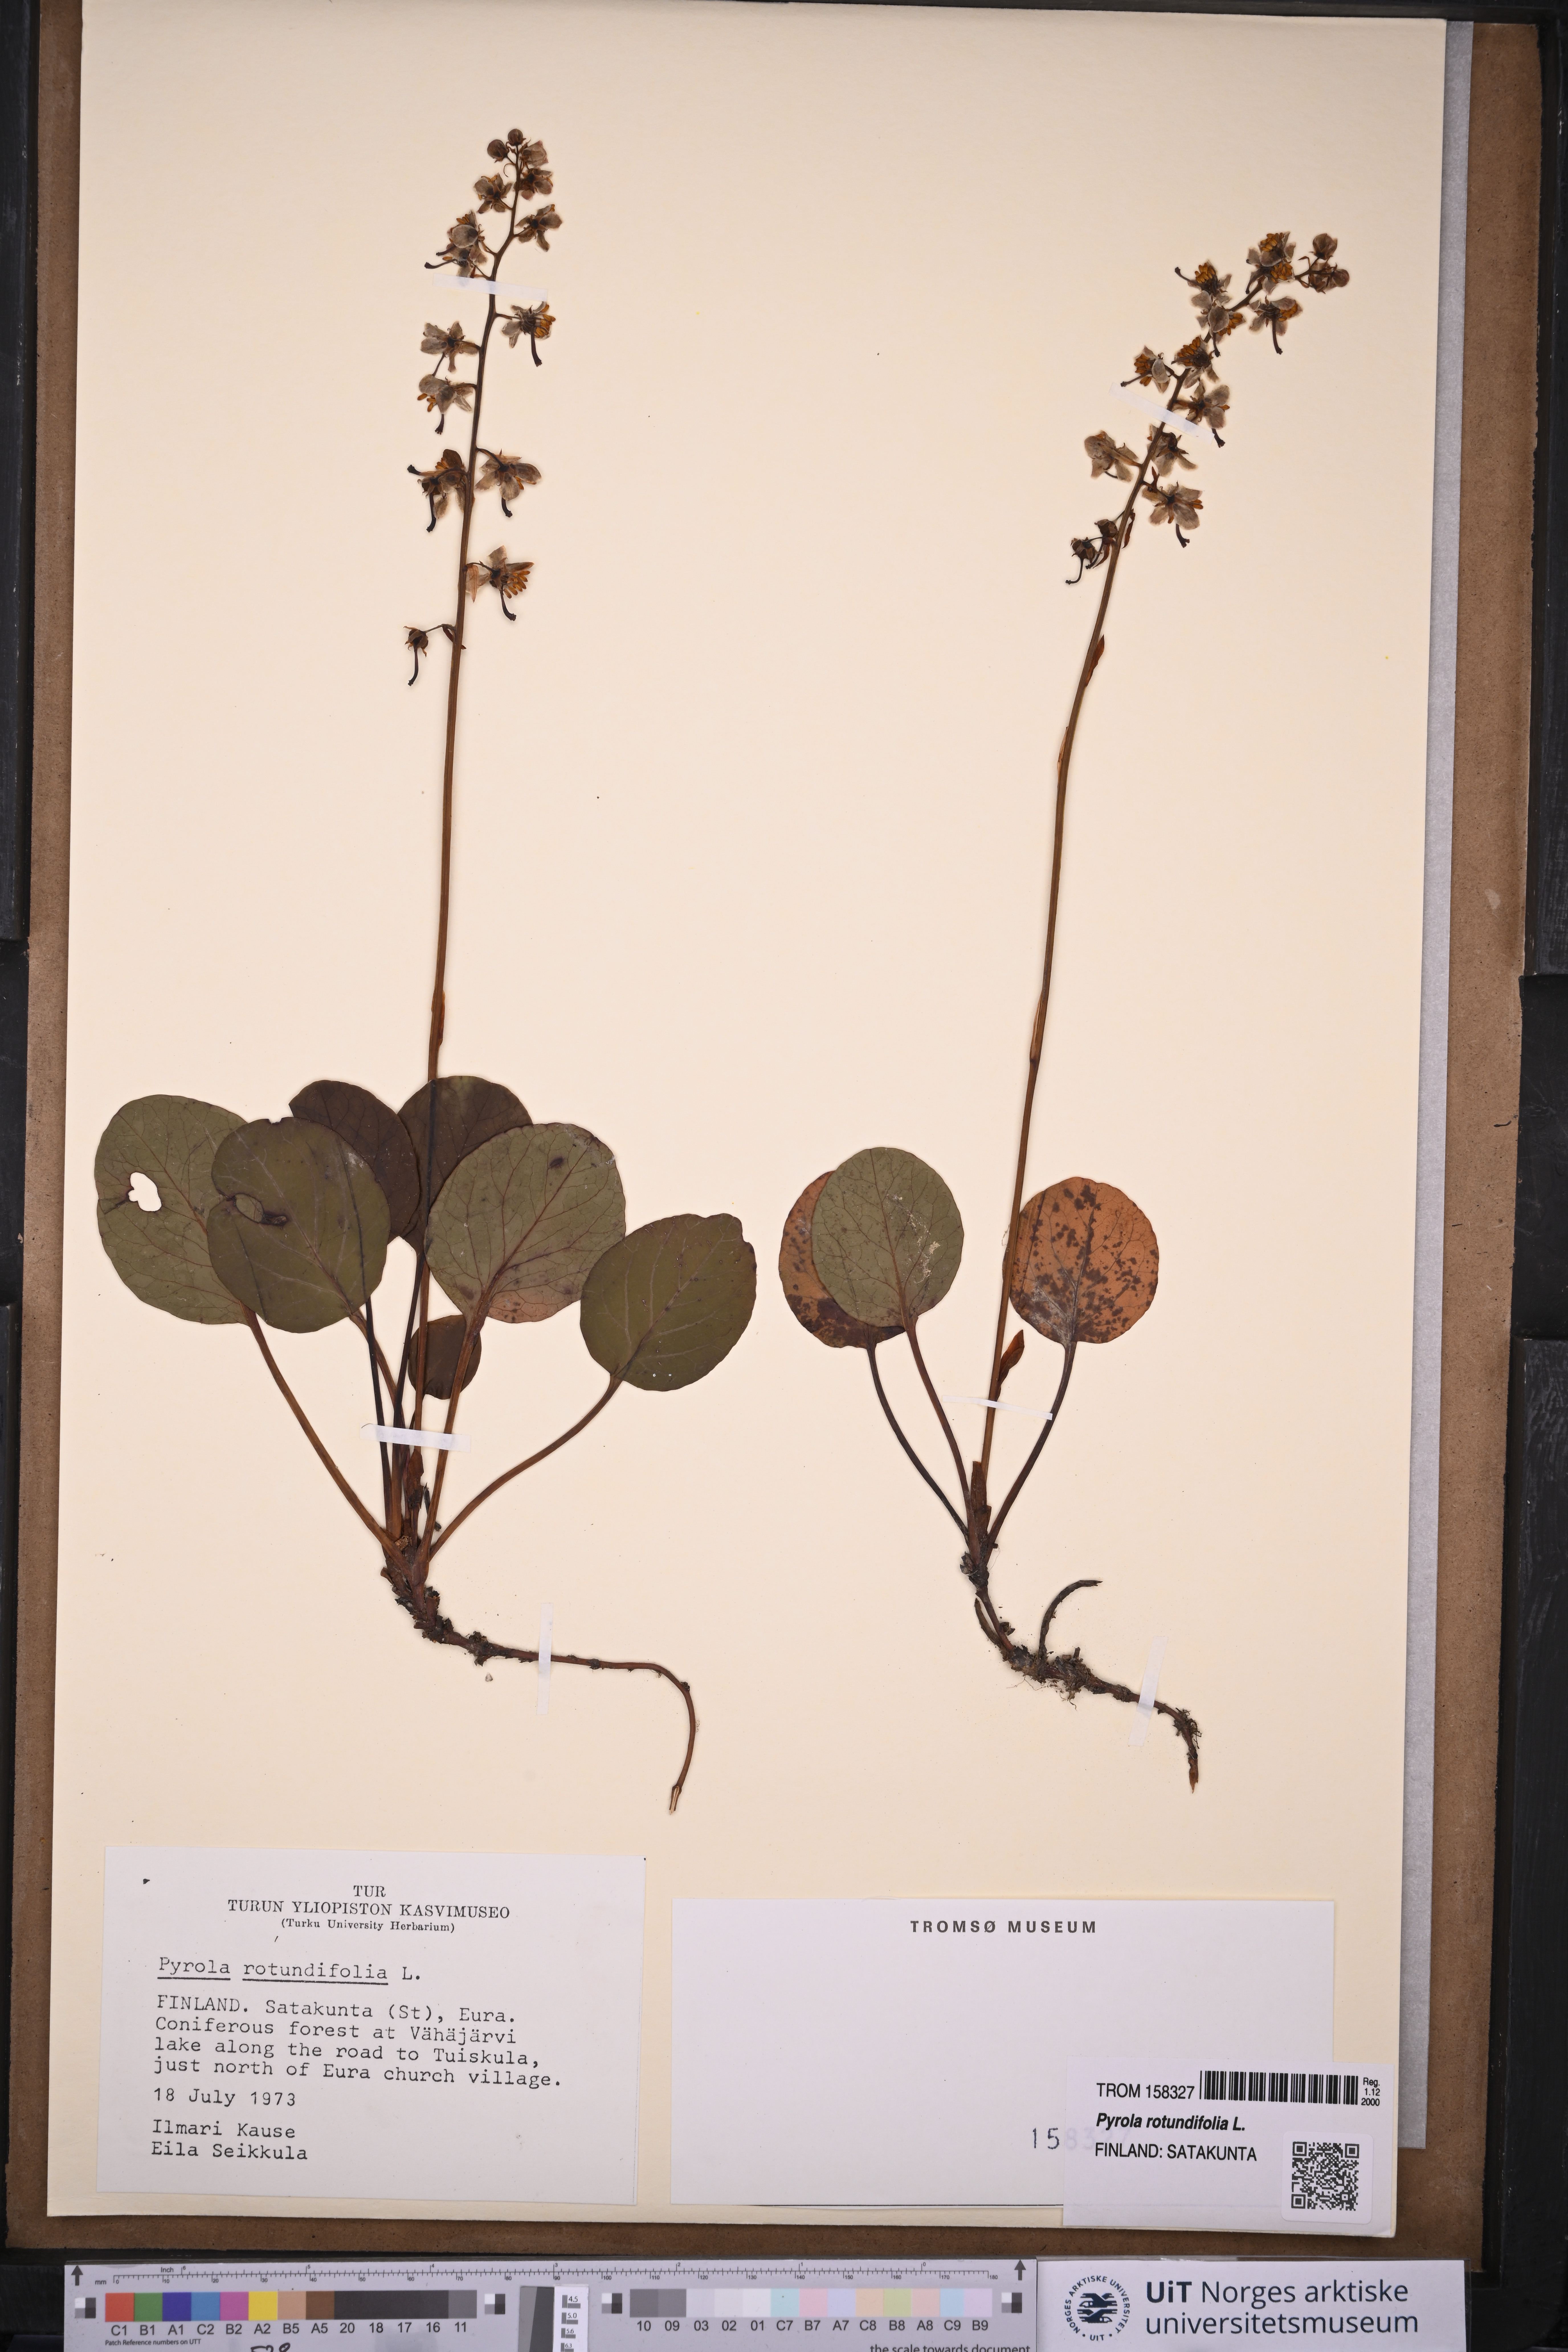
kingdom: Plantae
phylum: Tracheophyta
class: Magnoliopsida
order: Ericales
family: Ericaceae
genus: Pyrola
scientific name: Pyrola rotundifolia
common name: Round-leaved wintergreen
